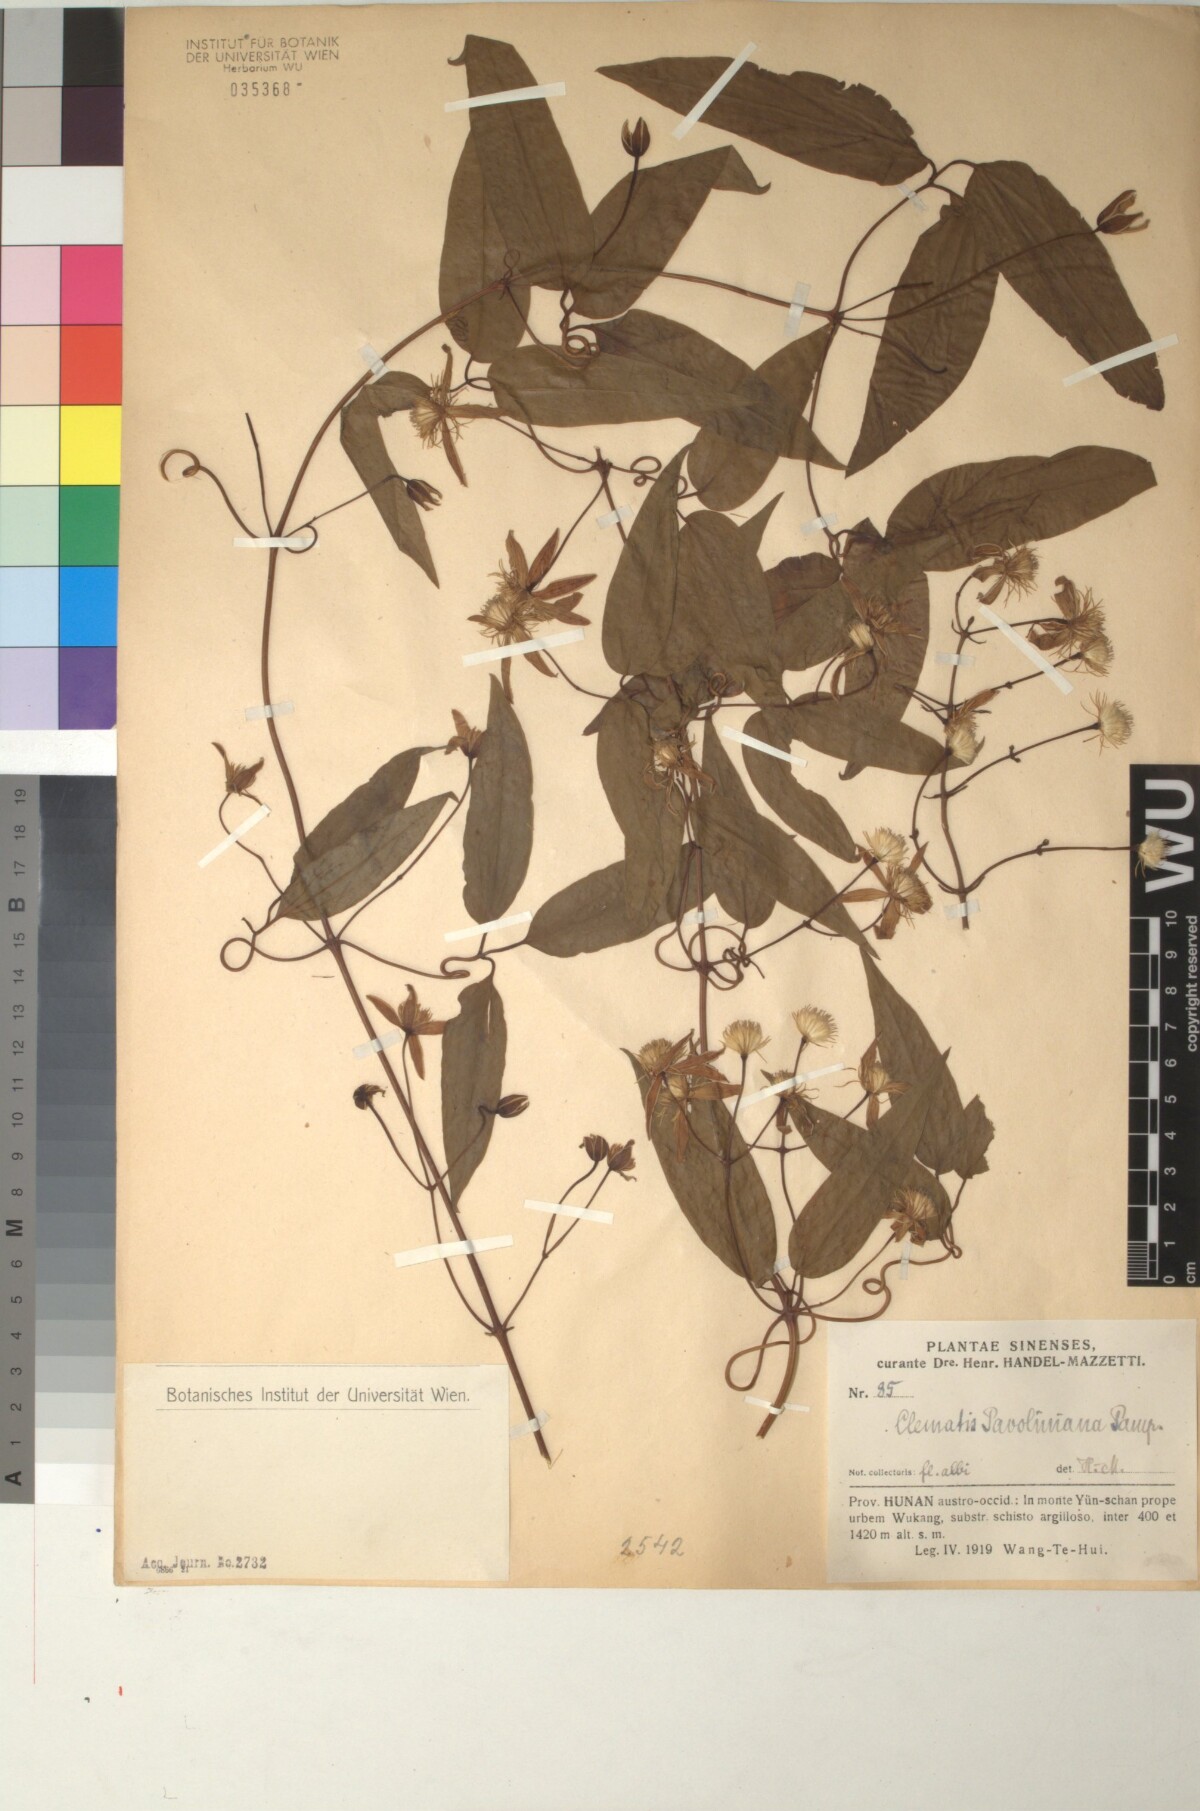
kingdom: Plantae
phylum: Tracheophyta
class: Magnoliopsida
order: Ranunculales
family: Ranunculaceae
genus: Clematis
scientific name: Clematis finetiana
